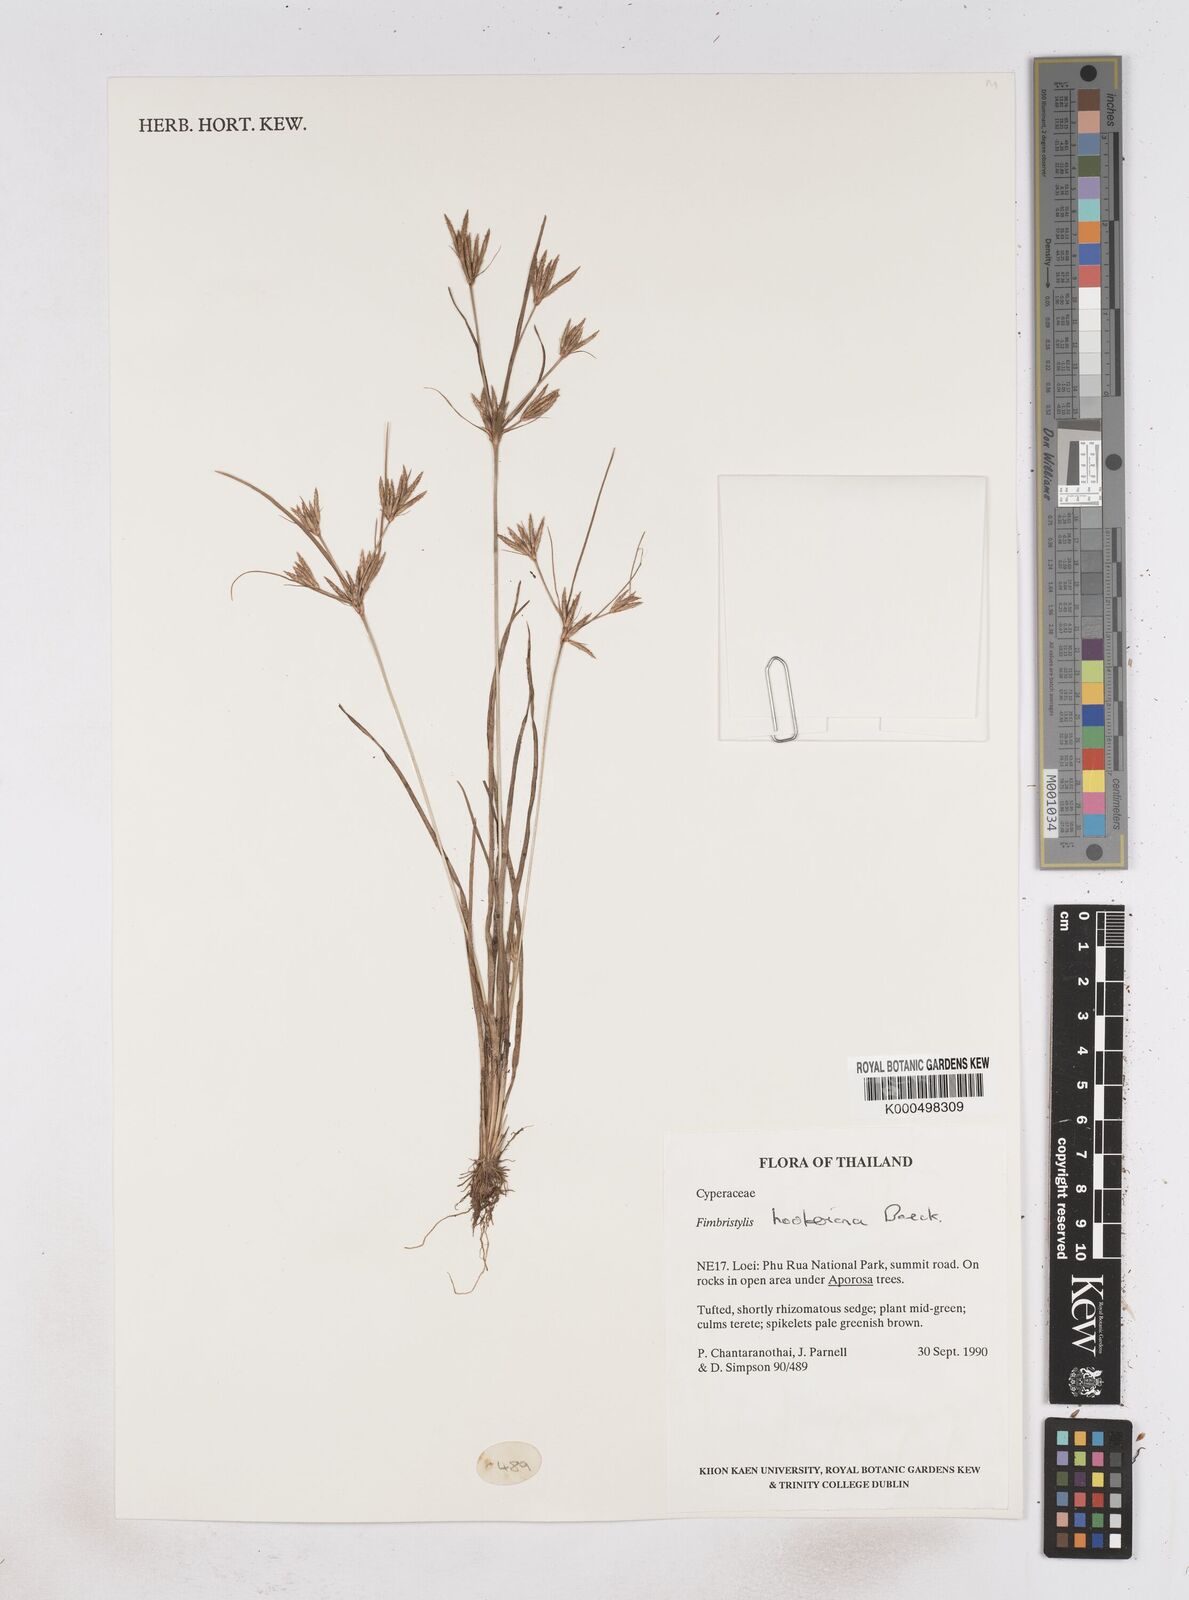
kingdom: Plantae
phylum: Tracheophyta
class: Liliopsida
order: Poales
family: Cyperaceae
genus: Fimbristylis
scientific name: Fimbristylis hookeriana
